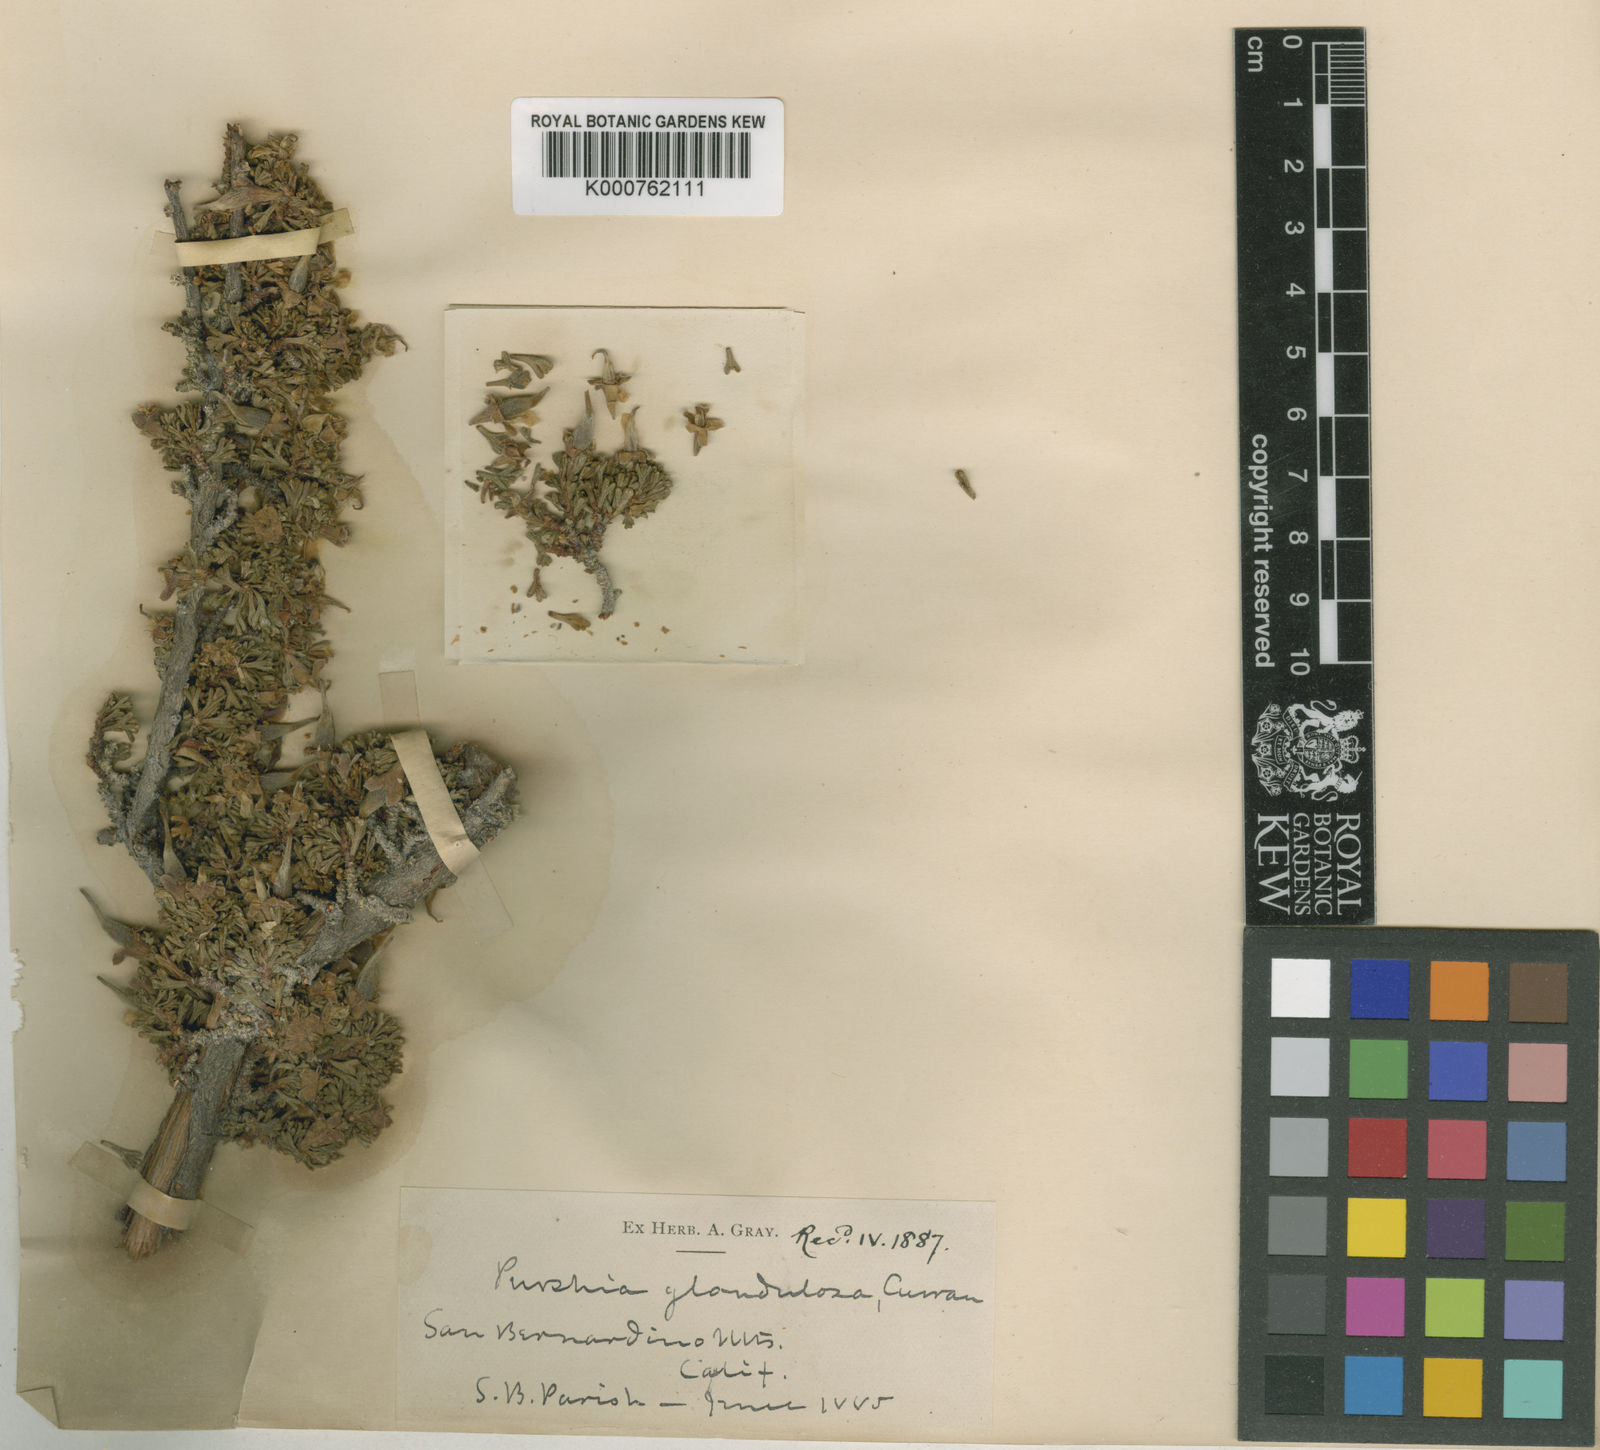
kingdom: Plantae
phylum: Tracheophyta
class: Magnoliopsida
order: Rosales
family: Rosaceae
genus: Purshia
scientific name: Purshia glandulosa
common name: Desert bitterbrush
